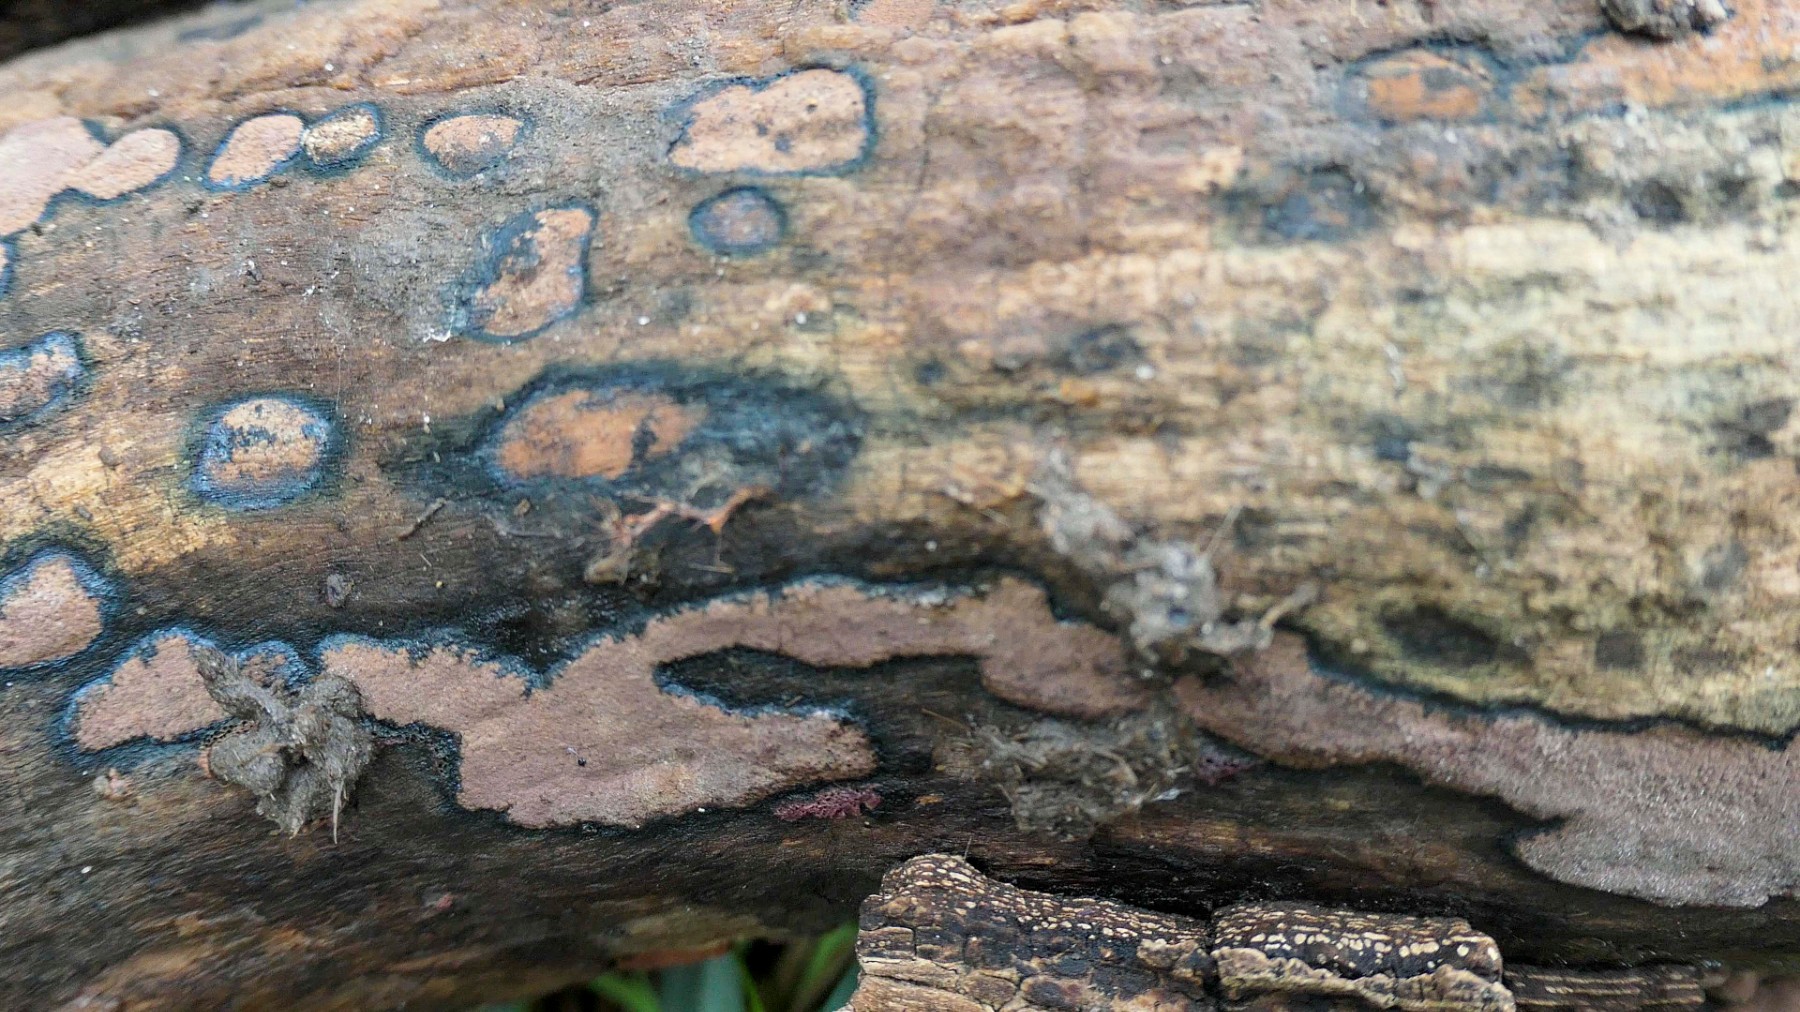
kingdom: Fungi
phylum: Ascomycota
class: Sordariomycetes
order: Xylariales
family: Hypoxylaceae
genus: Hypoxylon
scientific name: Hypoxylon petriniae
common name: nedsænket kulbær
